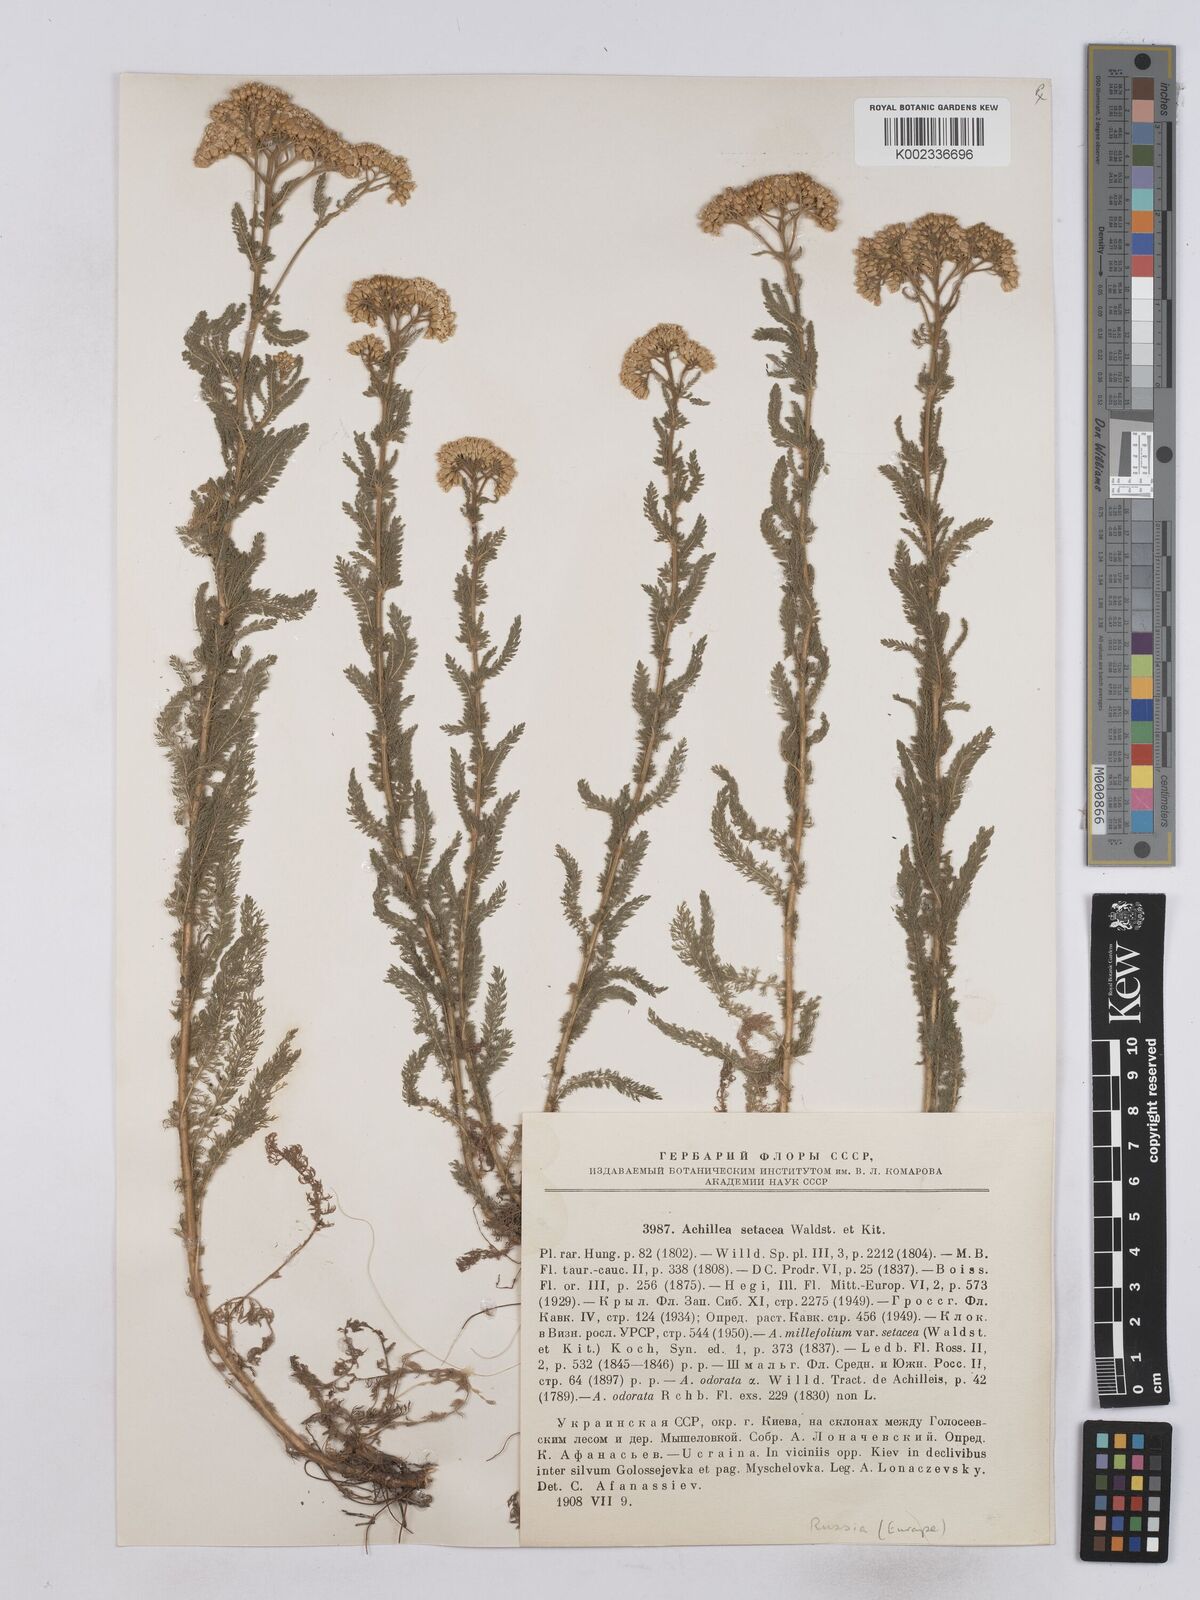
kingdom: Plantae
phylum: Tracheophyta
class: Magnoliopsida
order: Asterales
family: Asteraceae
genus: Achillea
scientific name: Achillea setacea
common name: Bristly yarrow
